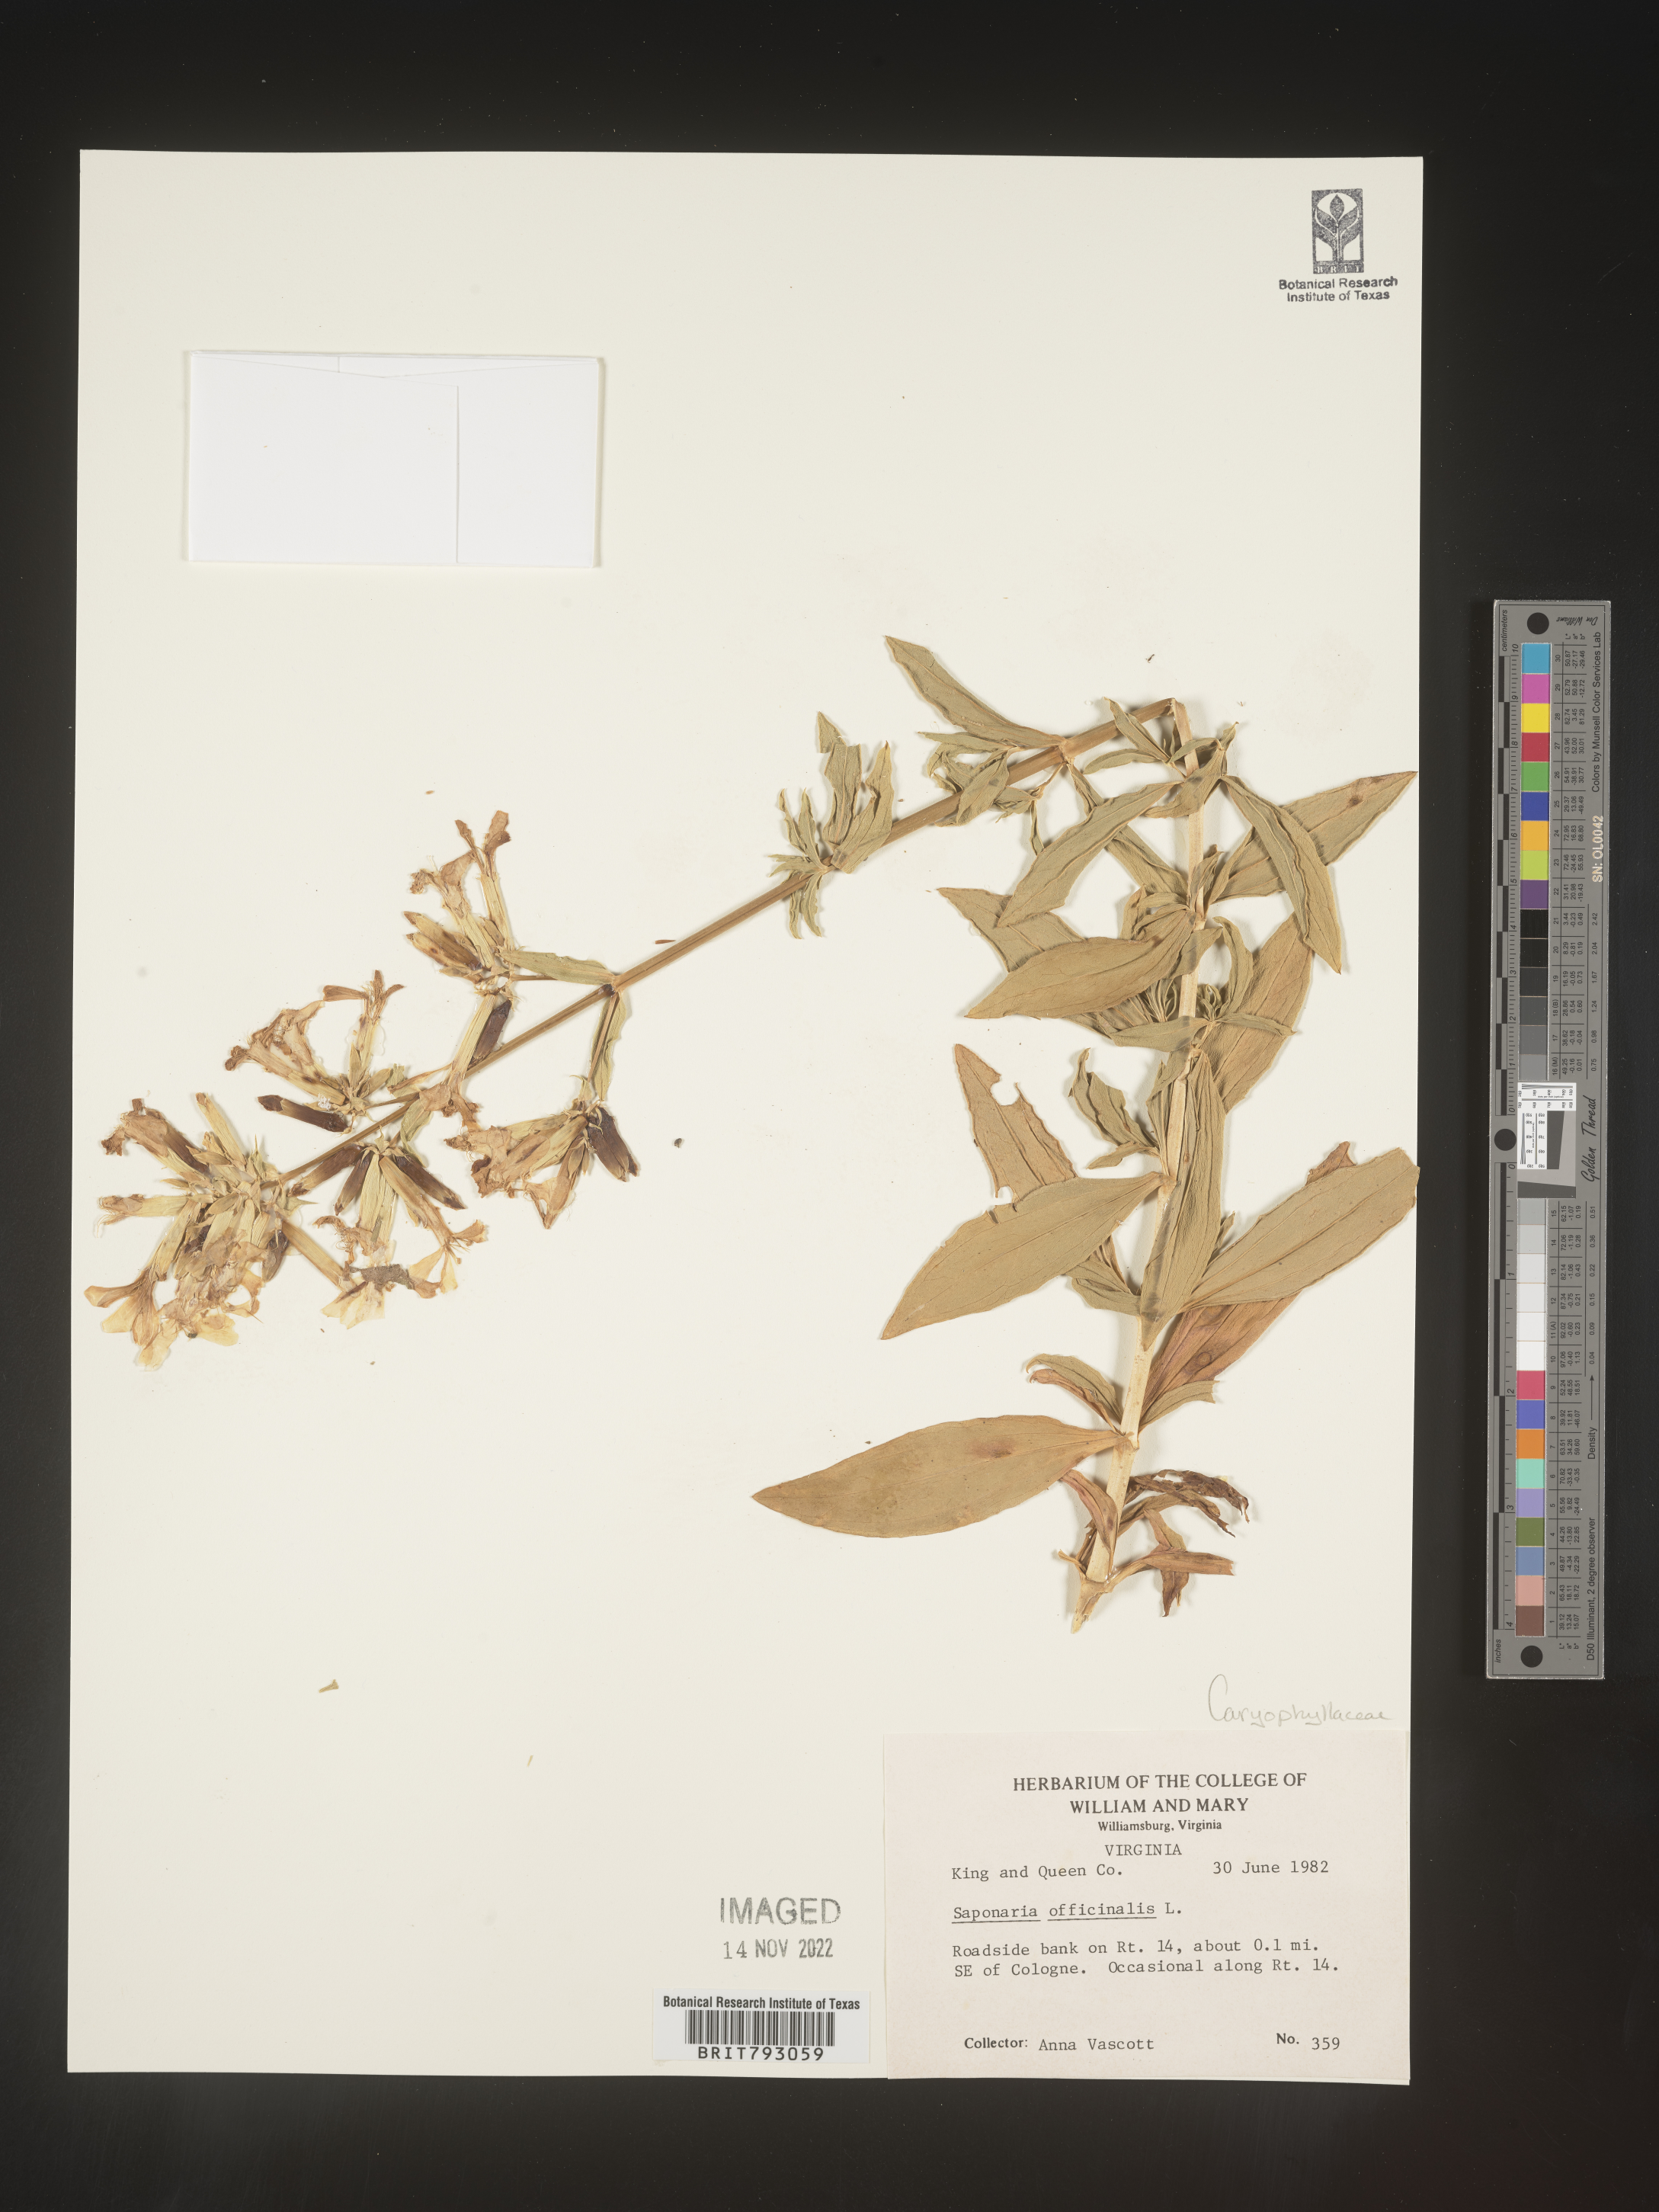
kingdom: Plantae
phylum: Tracheophyta
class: Magnoliopsida
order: Caryophyllales
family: Caryophyllaceae
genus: Saponaria
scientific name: Saponaria officinalis
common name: Soapwort
